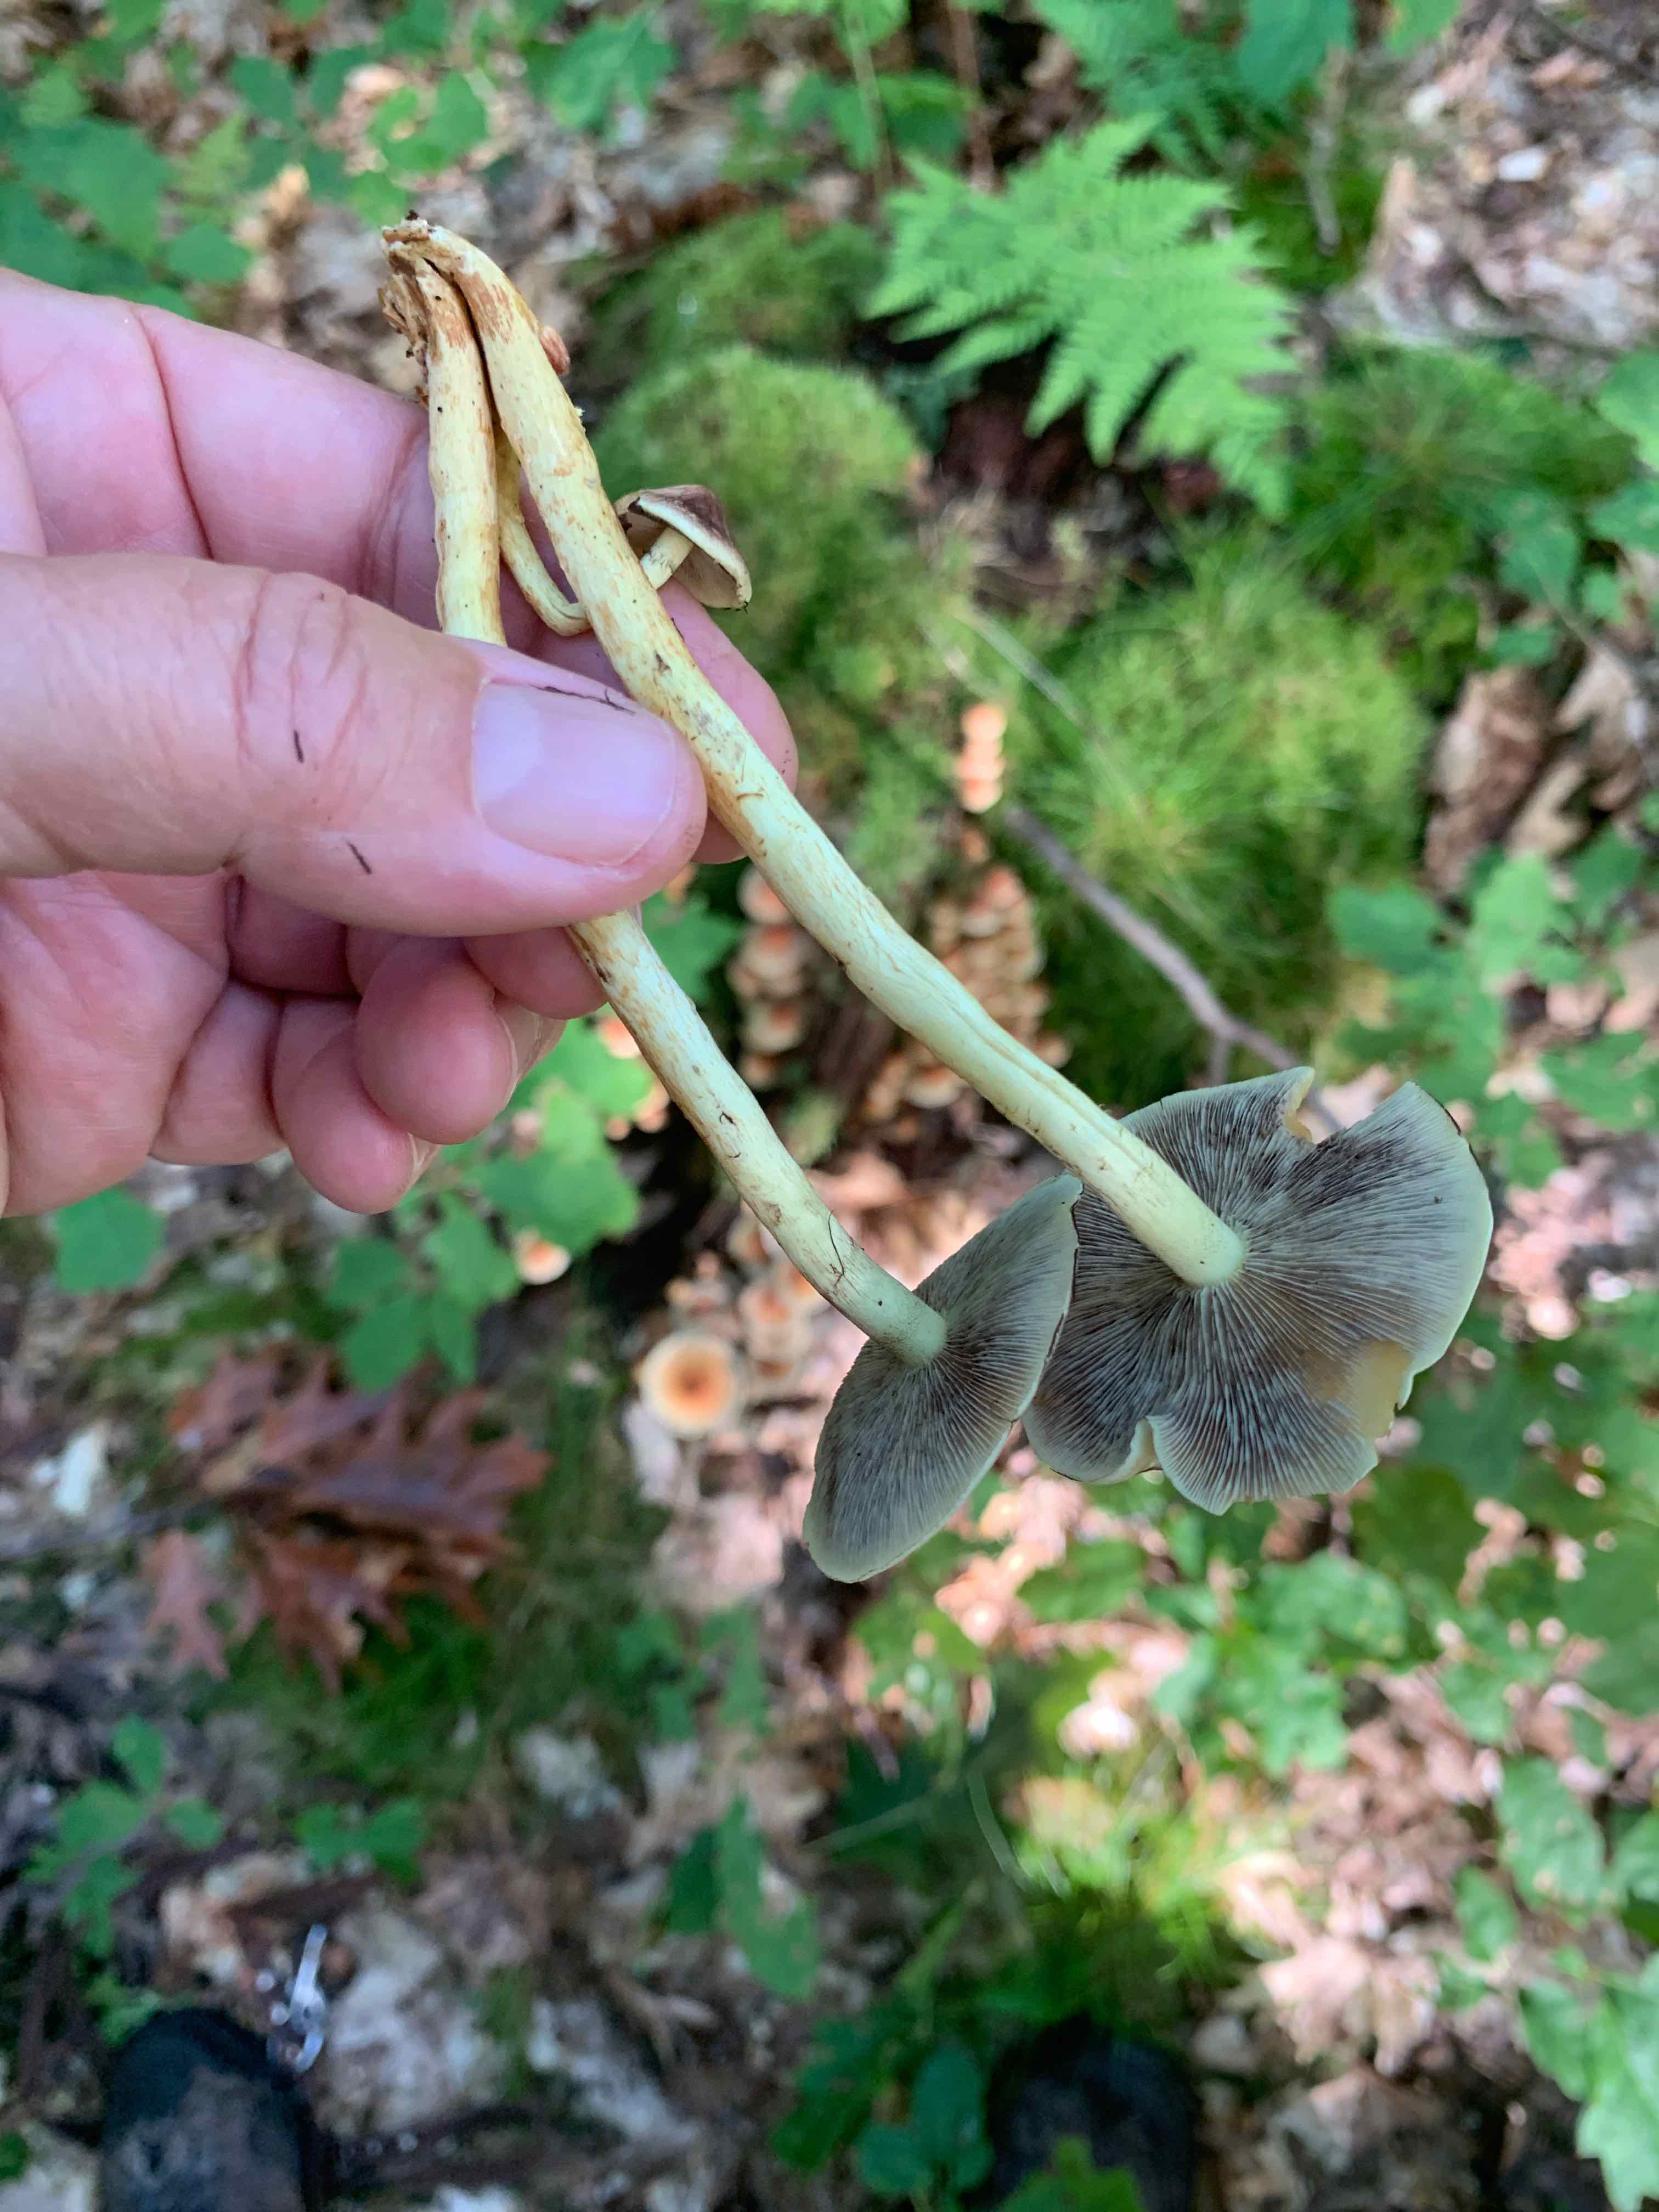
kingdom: Fungi
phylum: Basidiomycota
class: Agaricomycetes
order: Agaricales
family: Strophariaceae
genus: Hypholoma
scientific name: Hypholoma fasciculare
